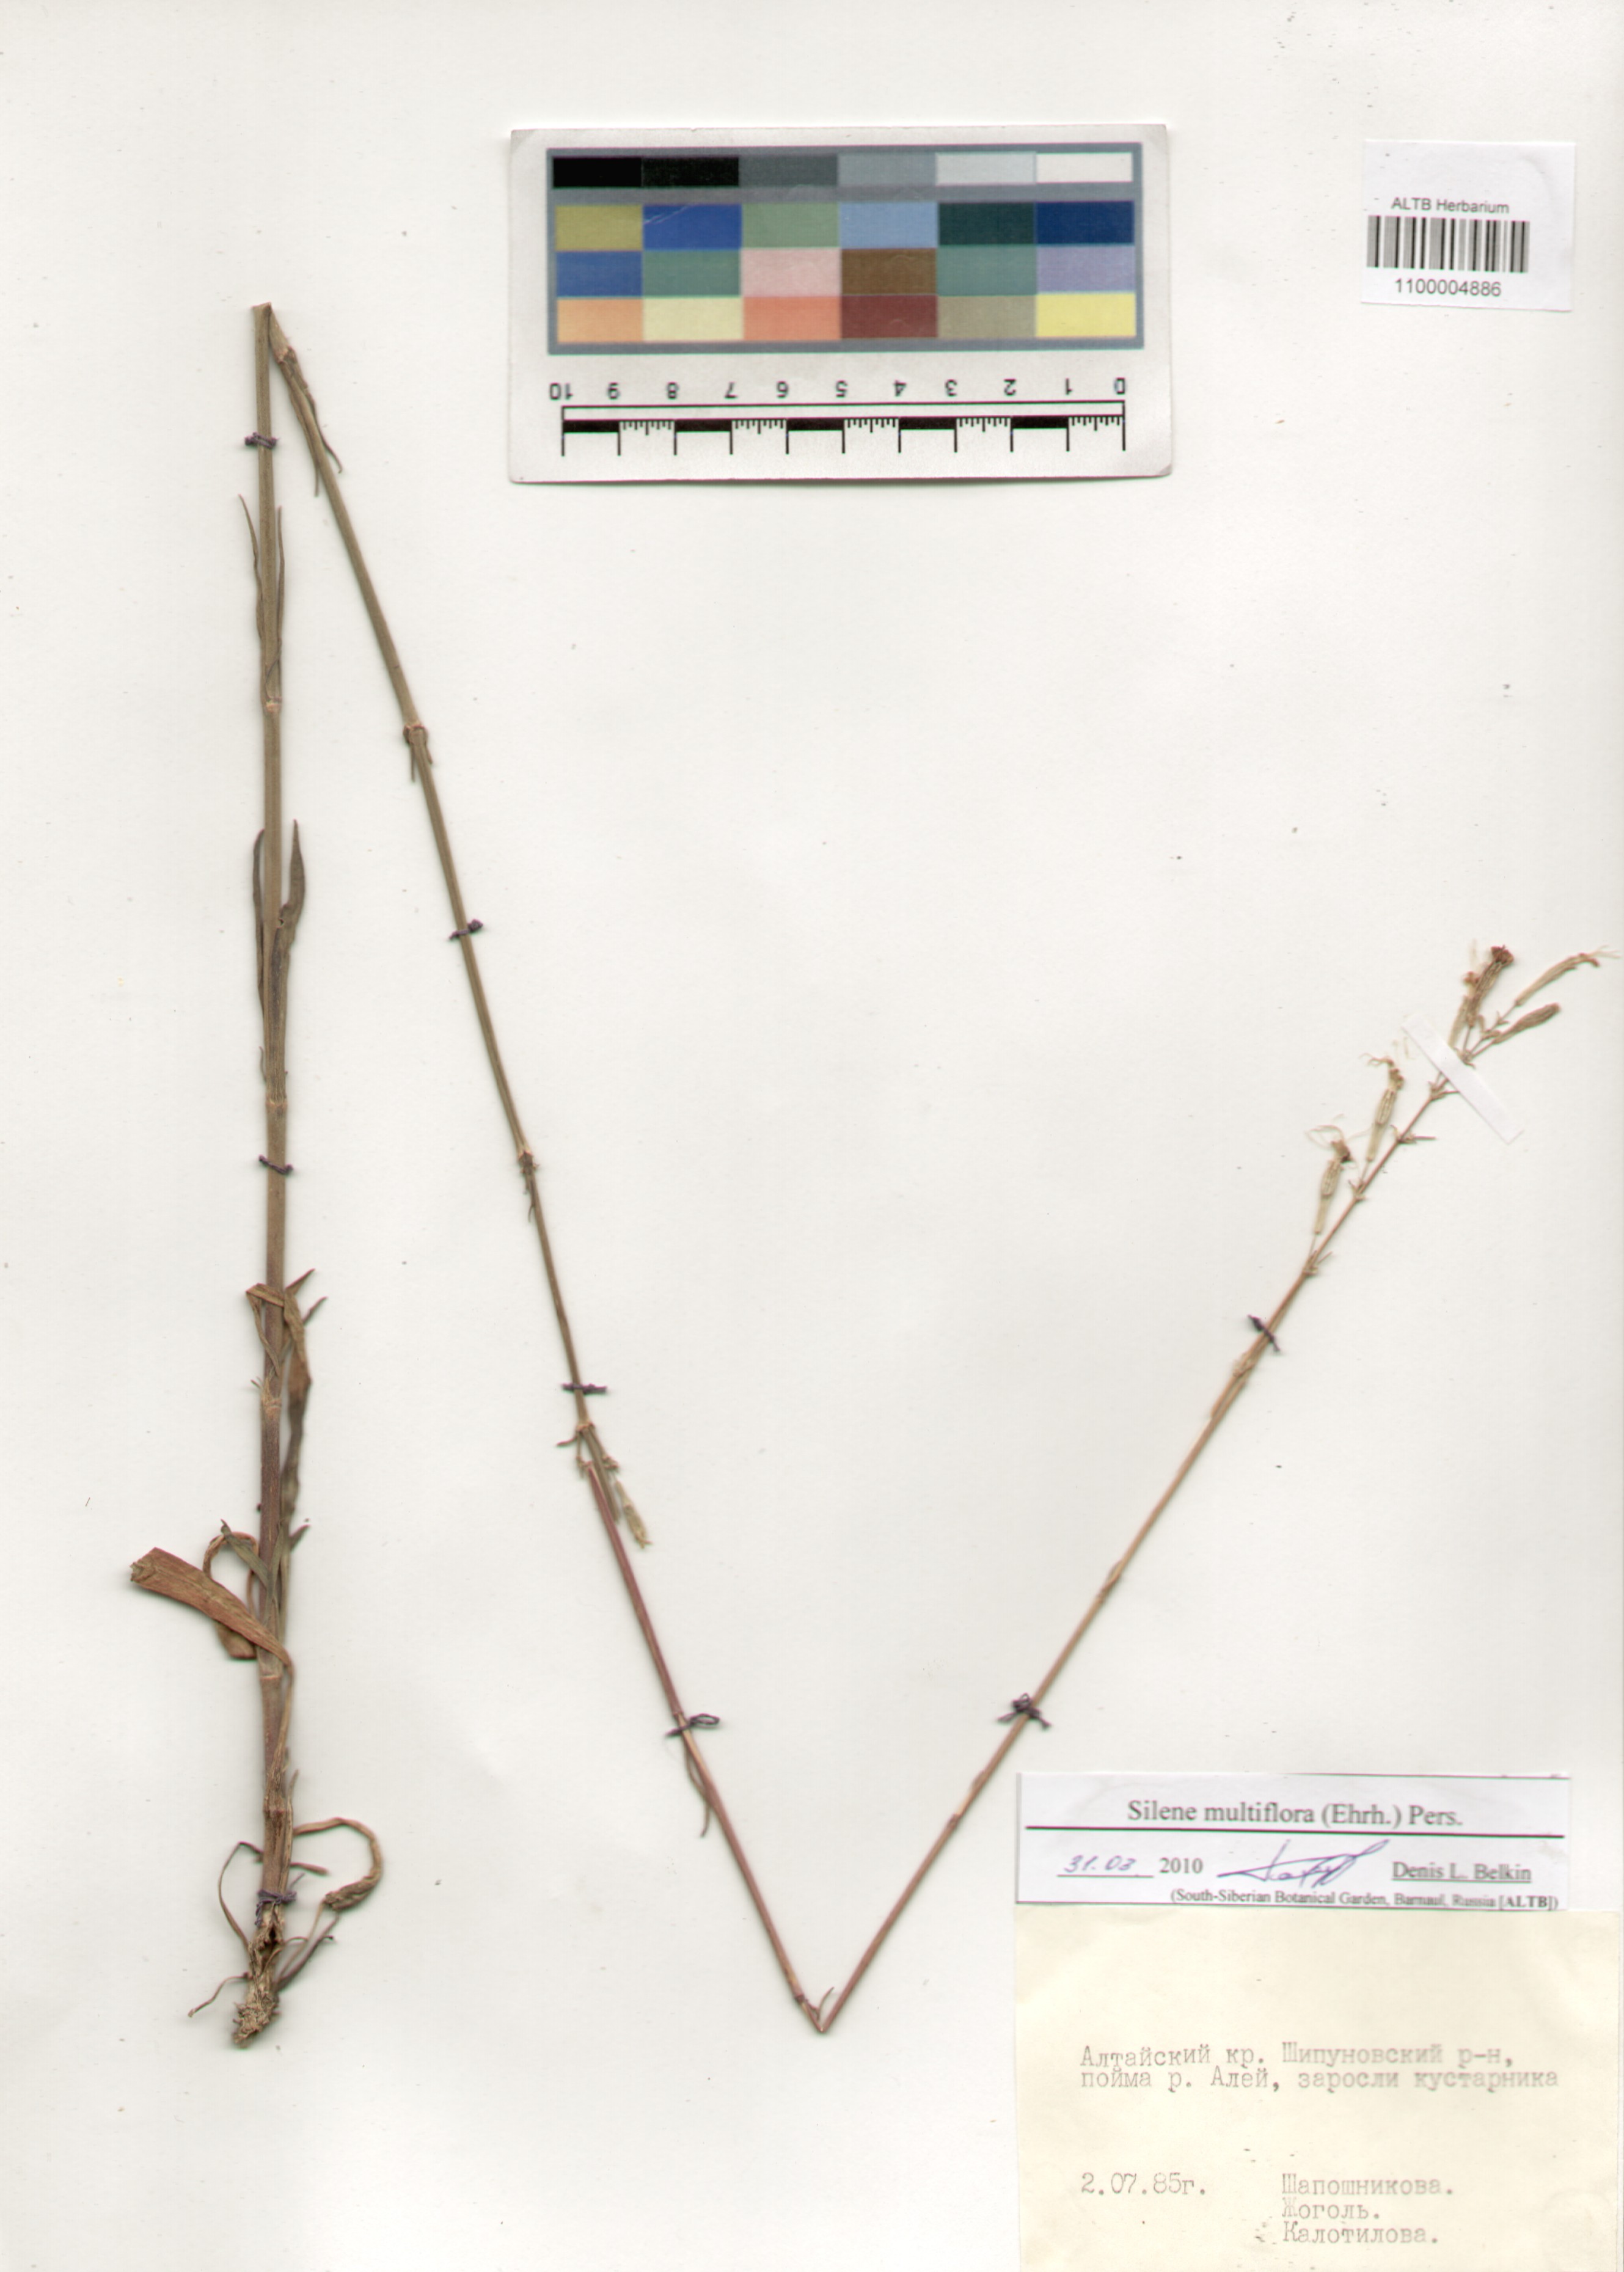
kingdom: Plantae
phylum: Tracheophyta
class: Magnoliopsida
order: Caryophyllales
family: Caryophyllaceae
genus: Silene
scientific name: Silene multiflora
